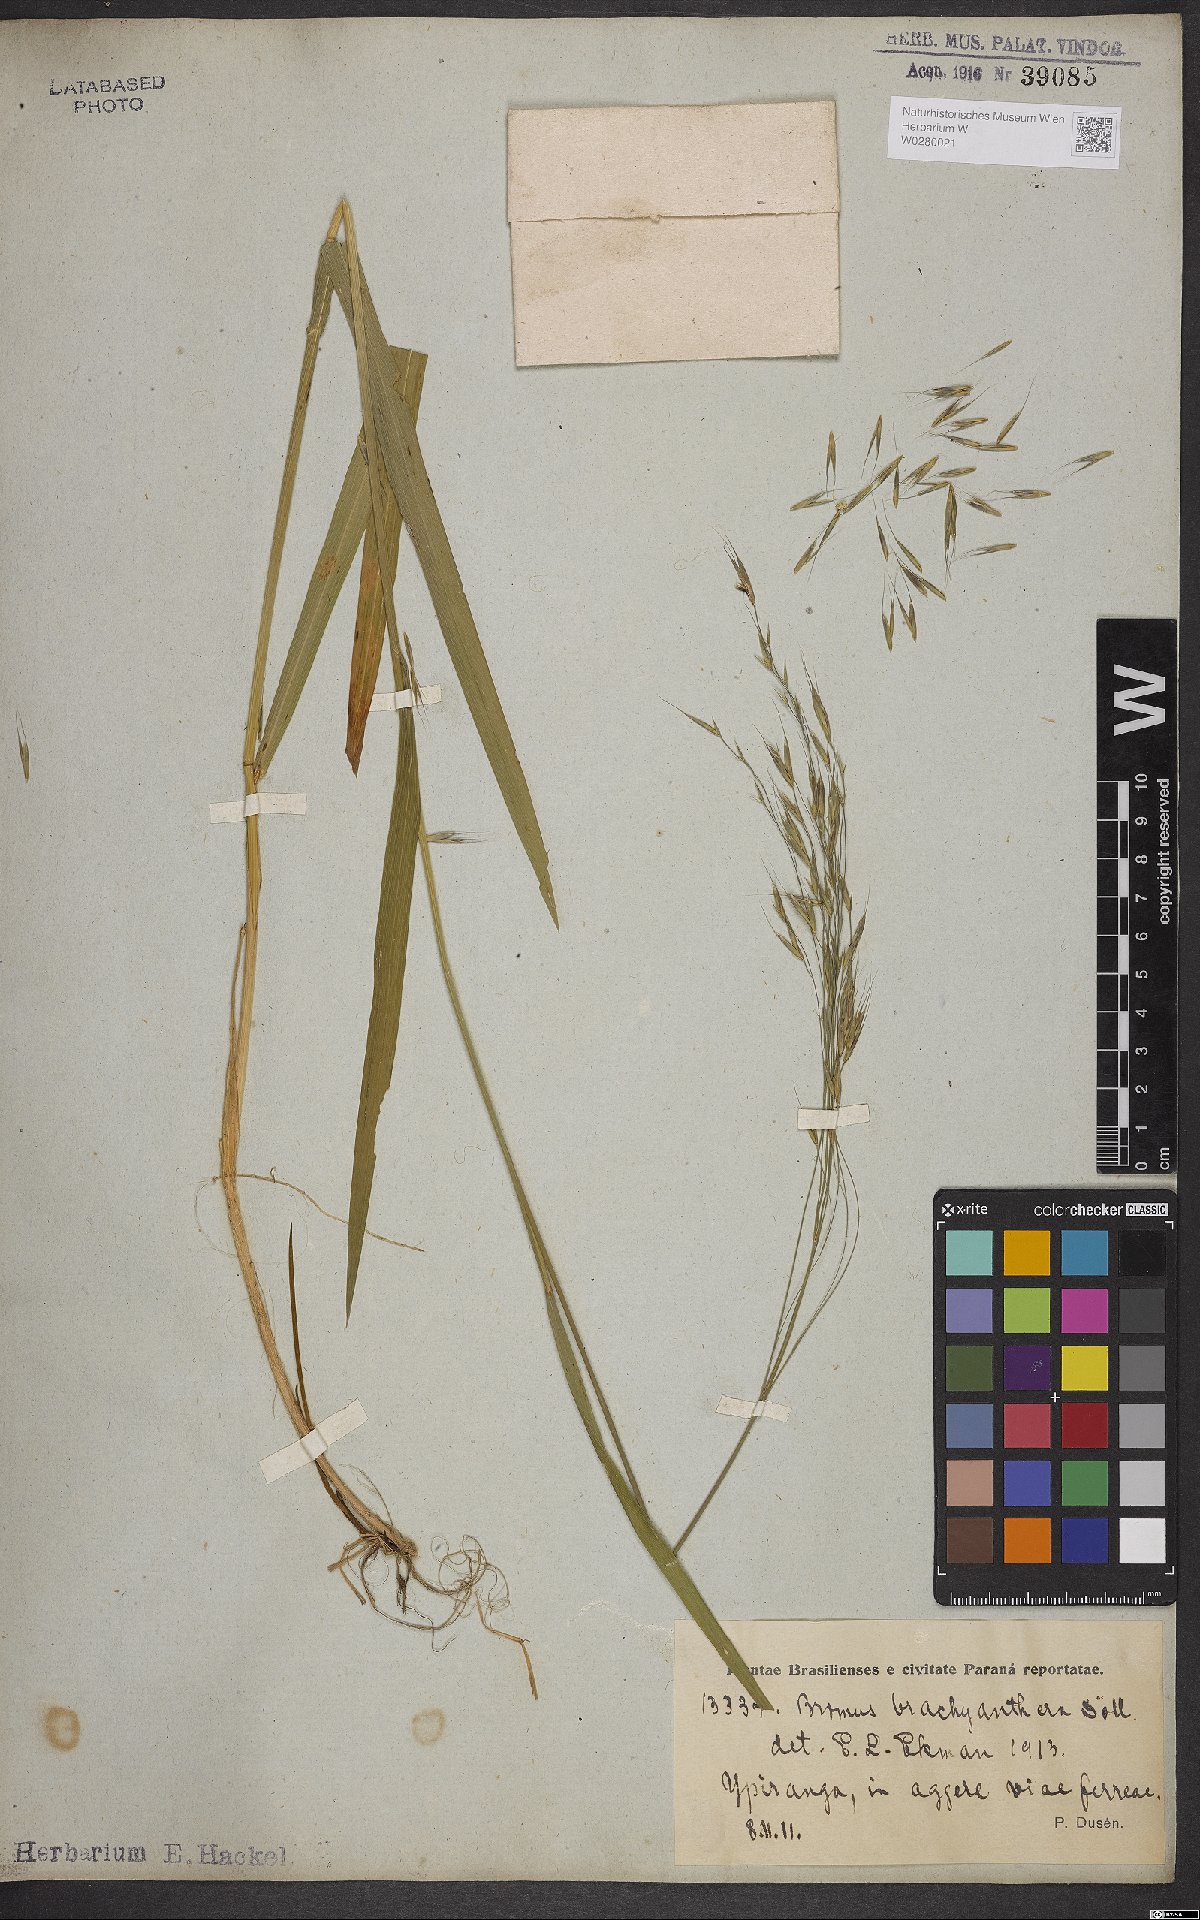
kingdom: Plantae
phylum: Tracheophyta
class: Liliopsida
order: Poales
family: Poaceae
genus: Bromus
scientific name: Bromus brachyantherus
